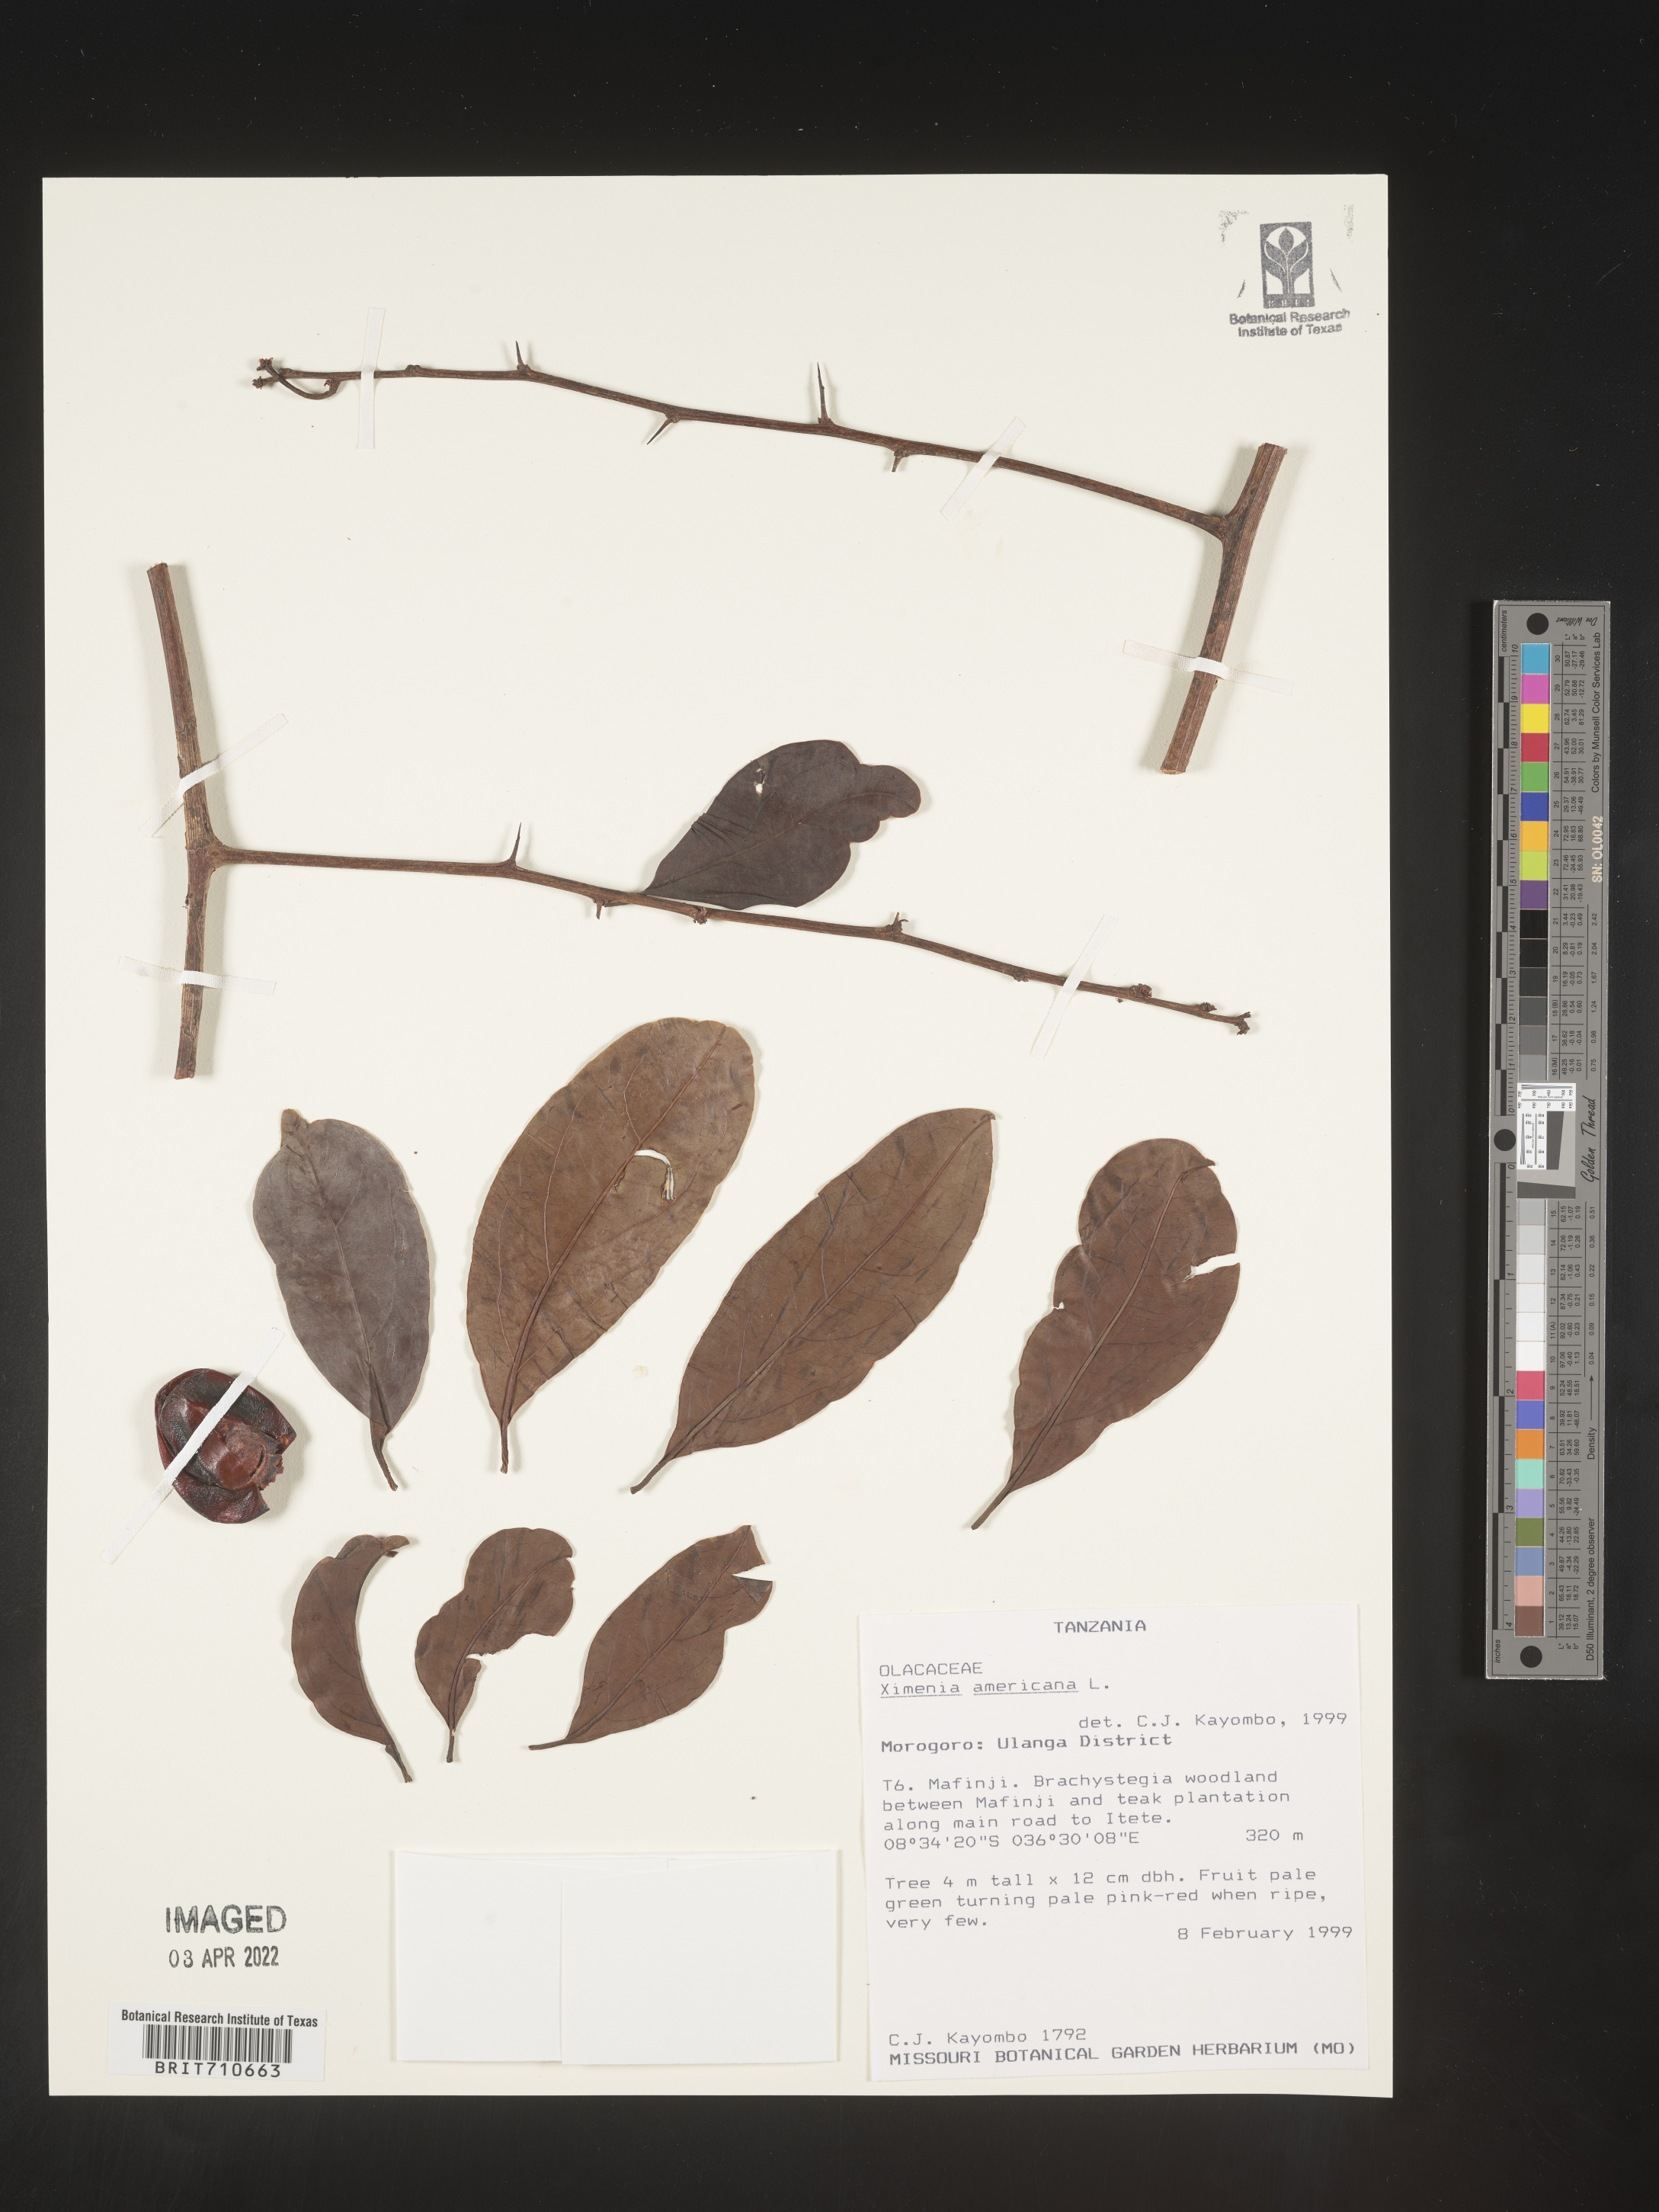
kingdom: Plantae
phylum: Tracheophyta
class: Magnoliopsida
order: Santalales
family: Ximeniaceae
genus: Ximenia
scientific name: Ximenia
